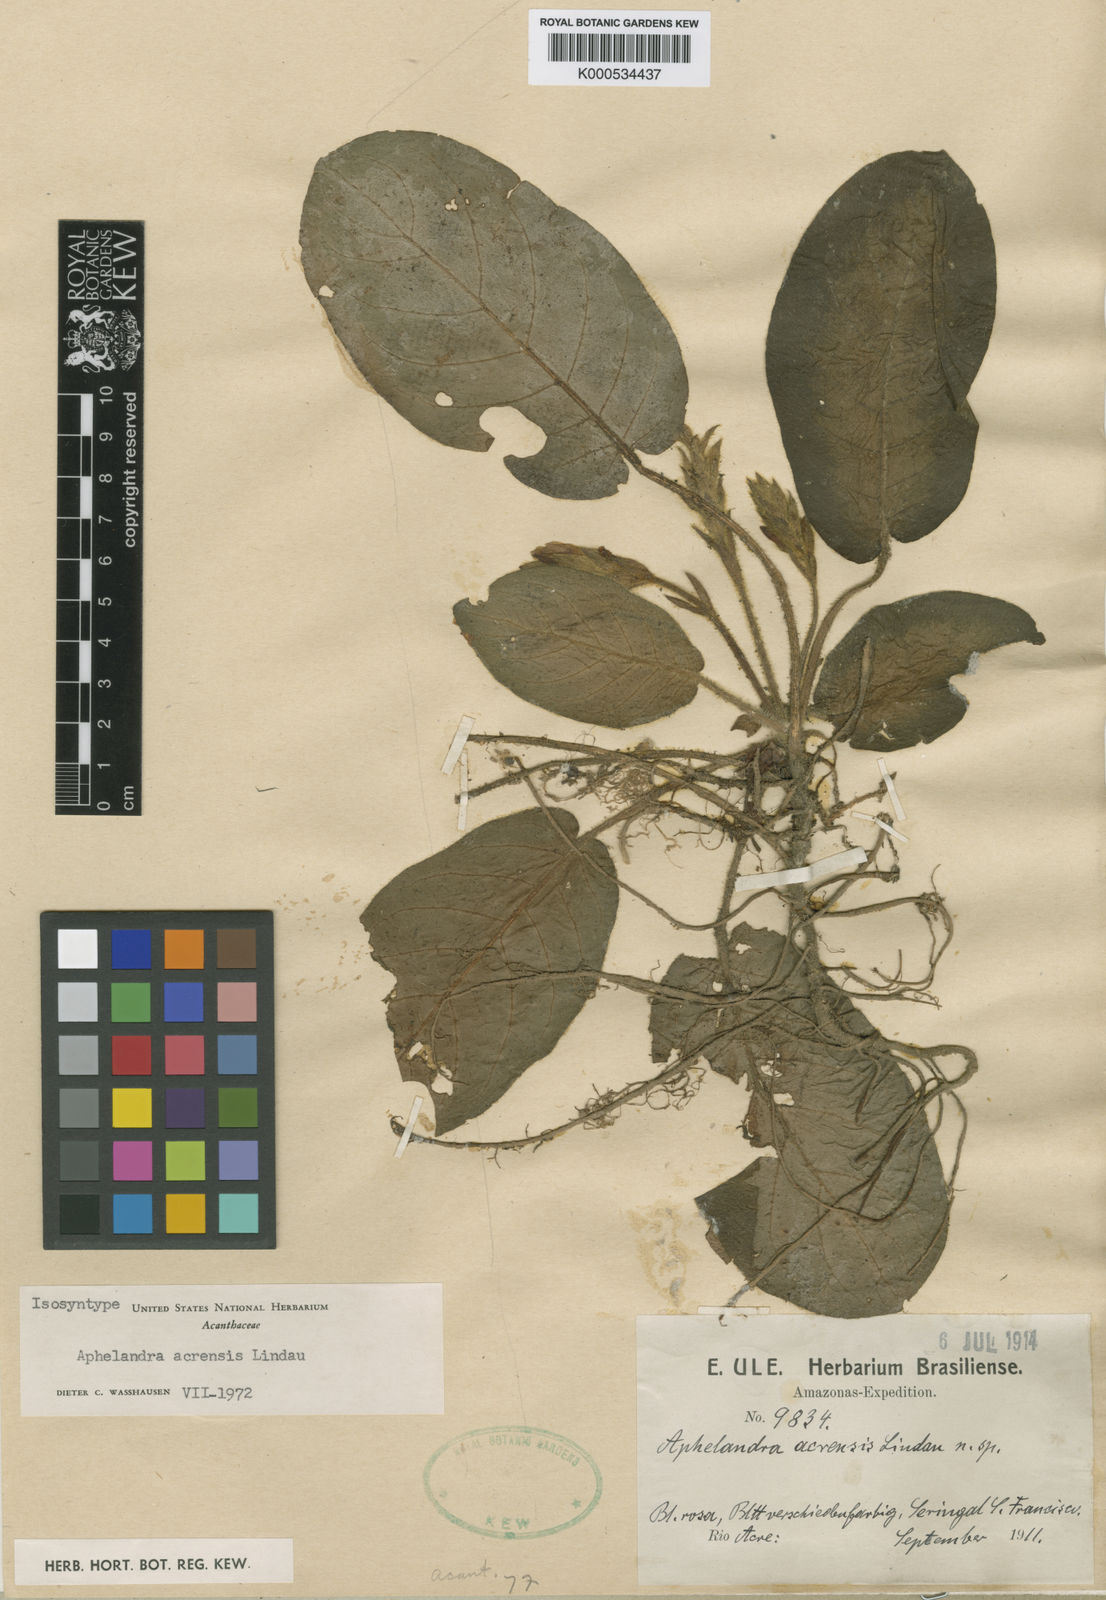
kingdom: Plantae
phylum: Tracheophyta
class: Magnoliopsida
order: Lamiales
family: Acanthaceae
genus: Aphelandra
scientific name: Aphelandra acrensis
